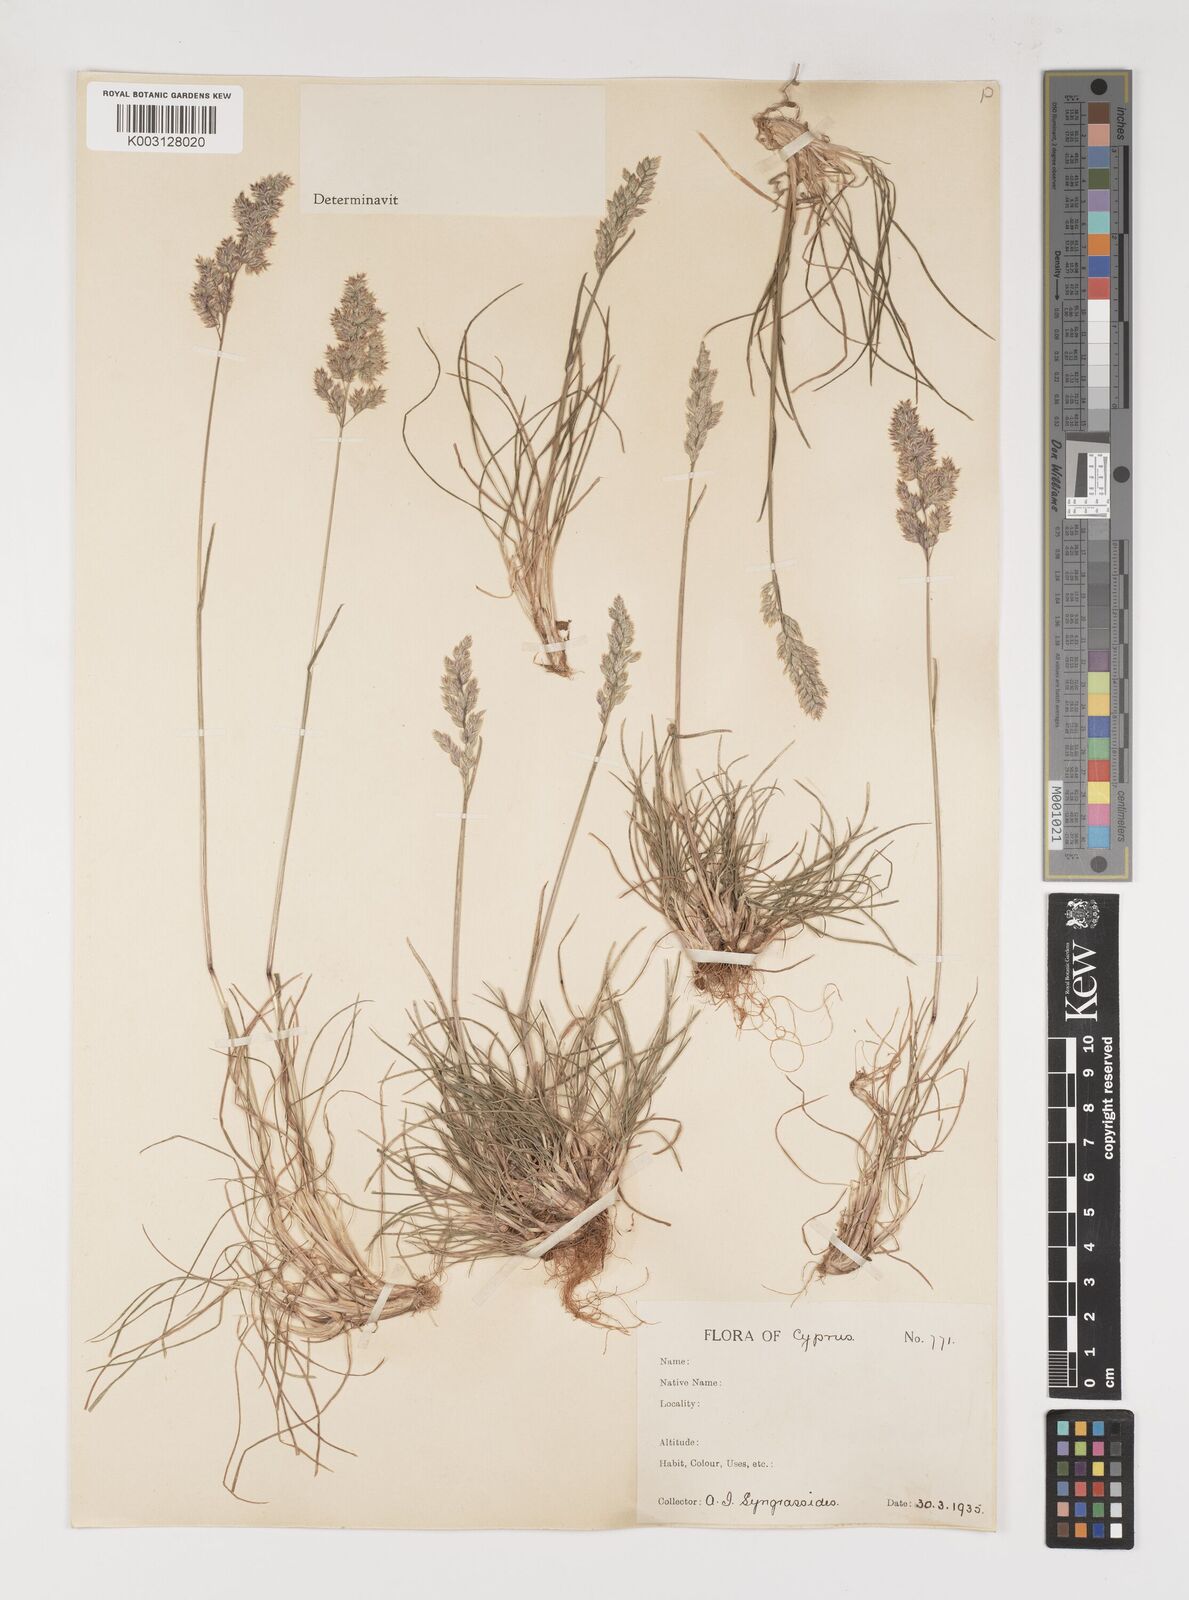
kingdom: Plantae
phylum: Tracheophyta
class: Liliopsida
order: Poales
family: Poaceae
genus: Poa
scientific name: Poa bulbosa
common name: Bulbous bluegrass
